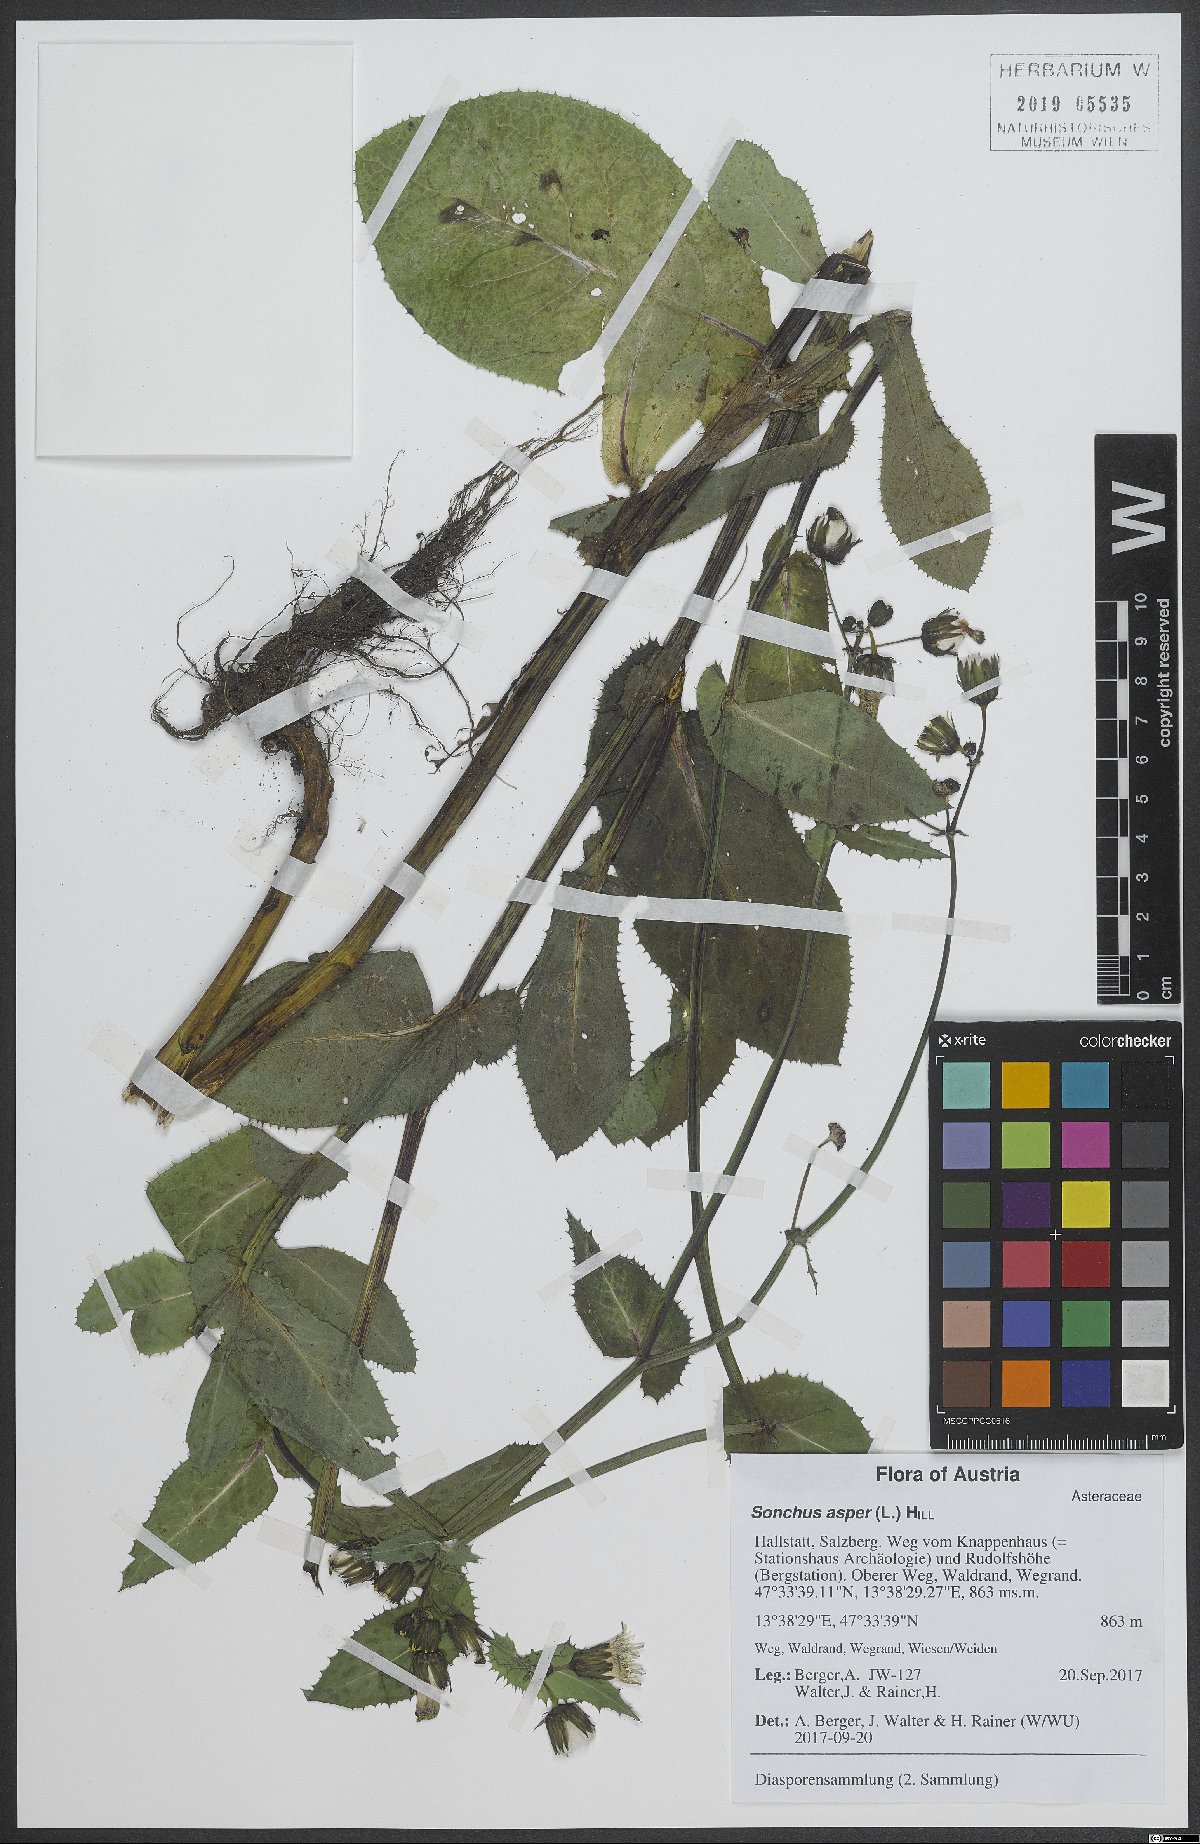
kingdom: Plantae
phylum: Tracheophyta
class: Magnoliopsida
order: Asterales
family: Asteraceae
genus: Sonchus
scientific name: Sonchus asper
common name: Prickly sow-thistle
